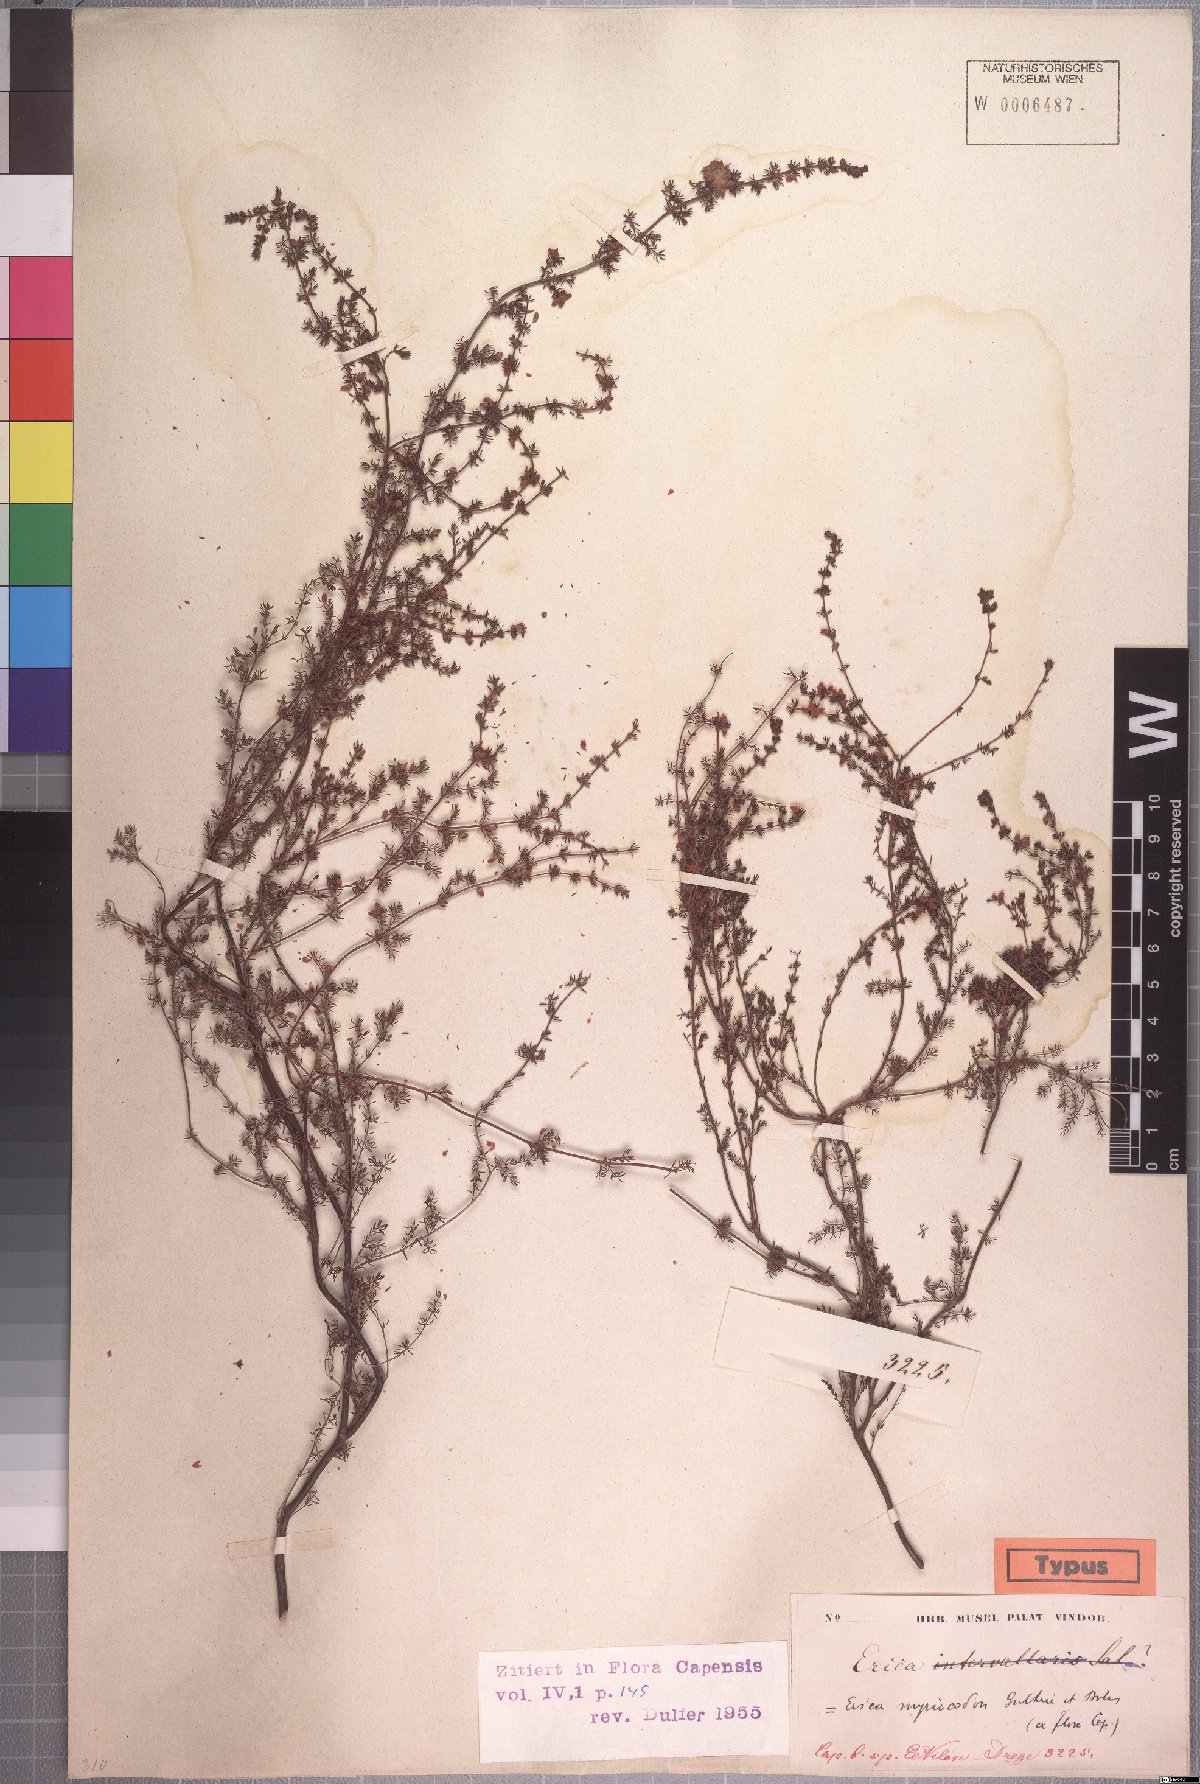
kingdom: Plantae
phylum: Tracheophyta
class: Magnoliopsida
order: Ericales
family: Ericaceae
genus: Erica
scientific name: Erica myriocodon
